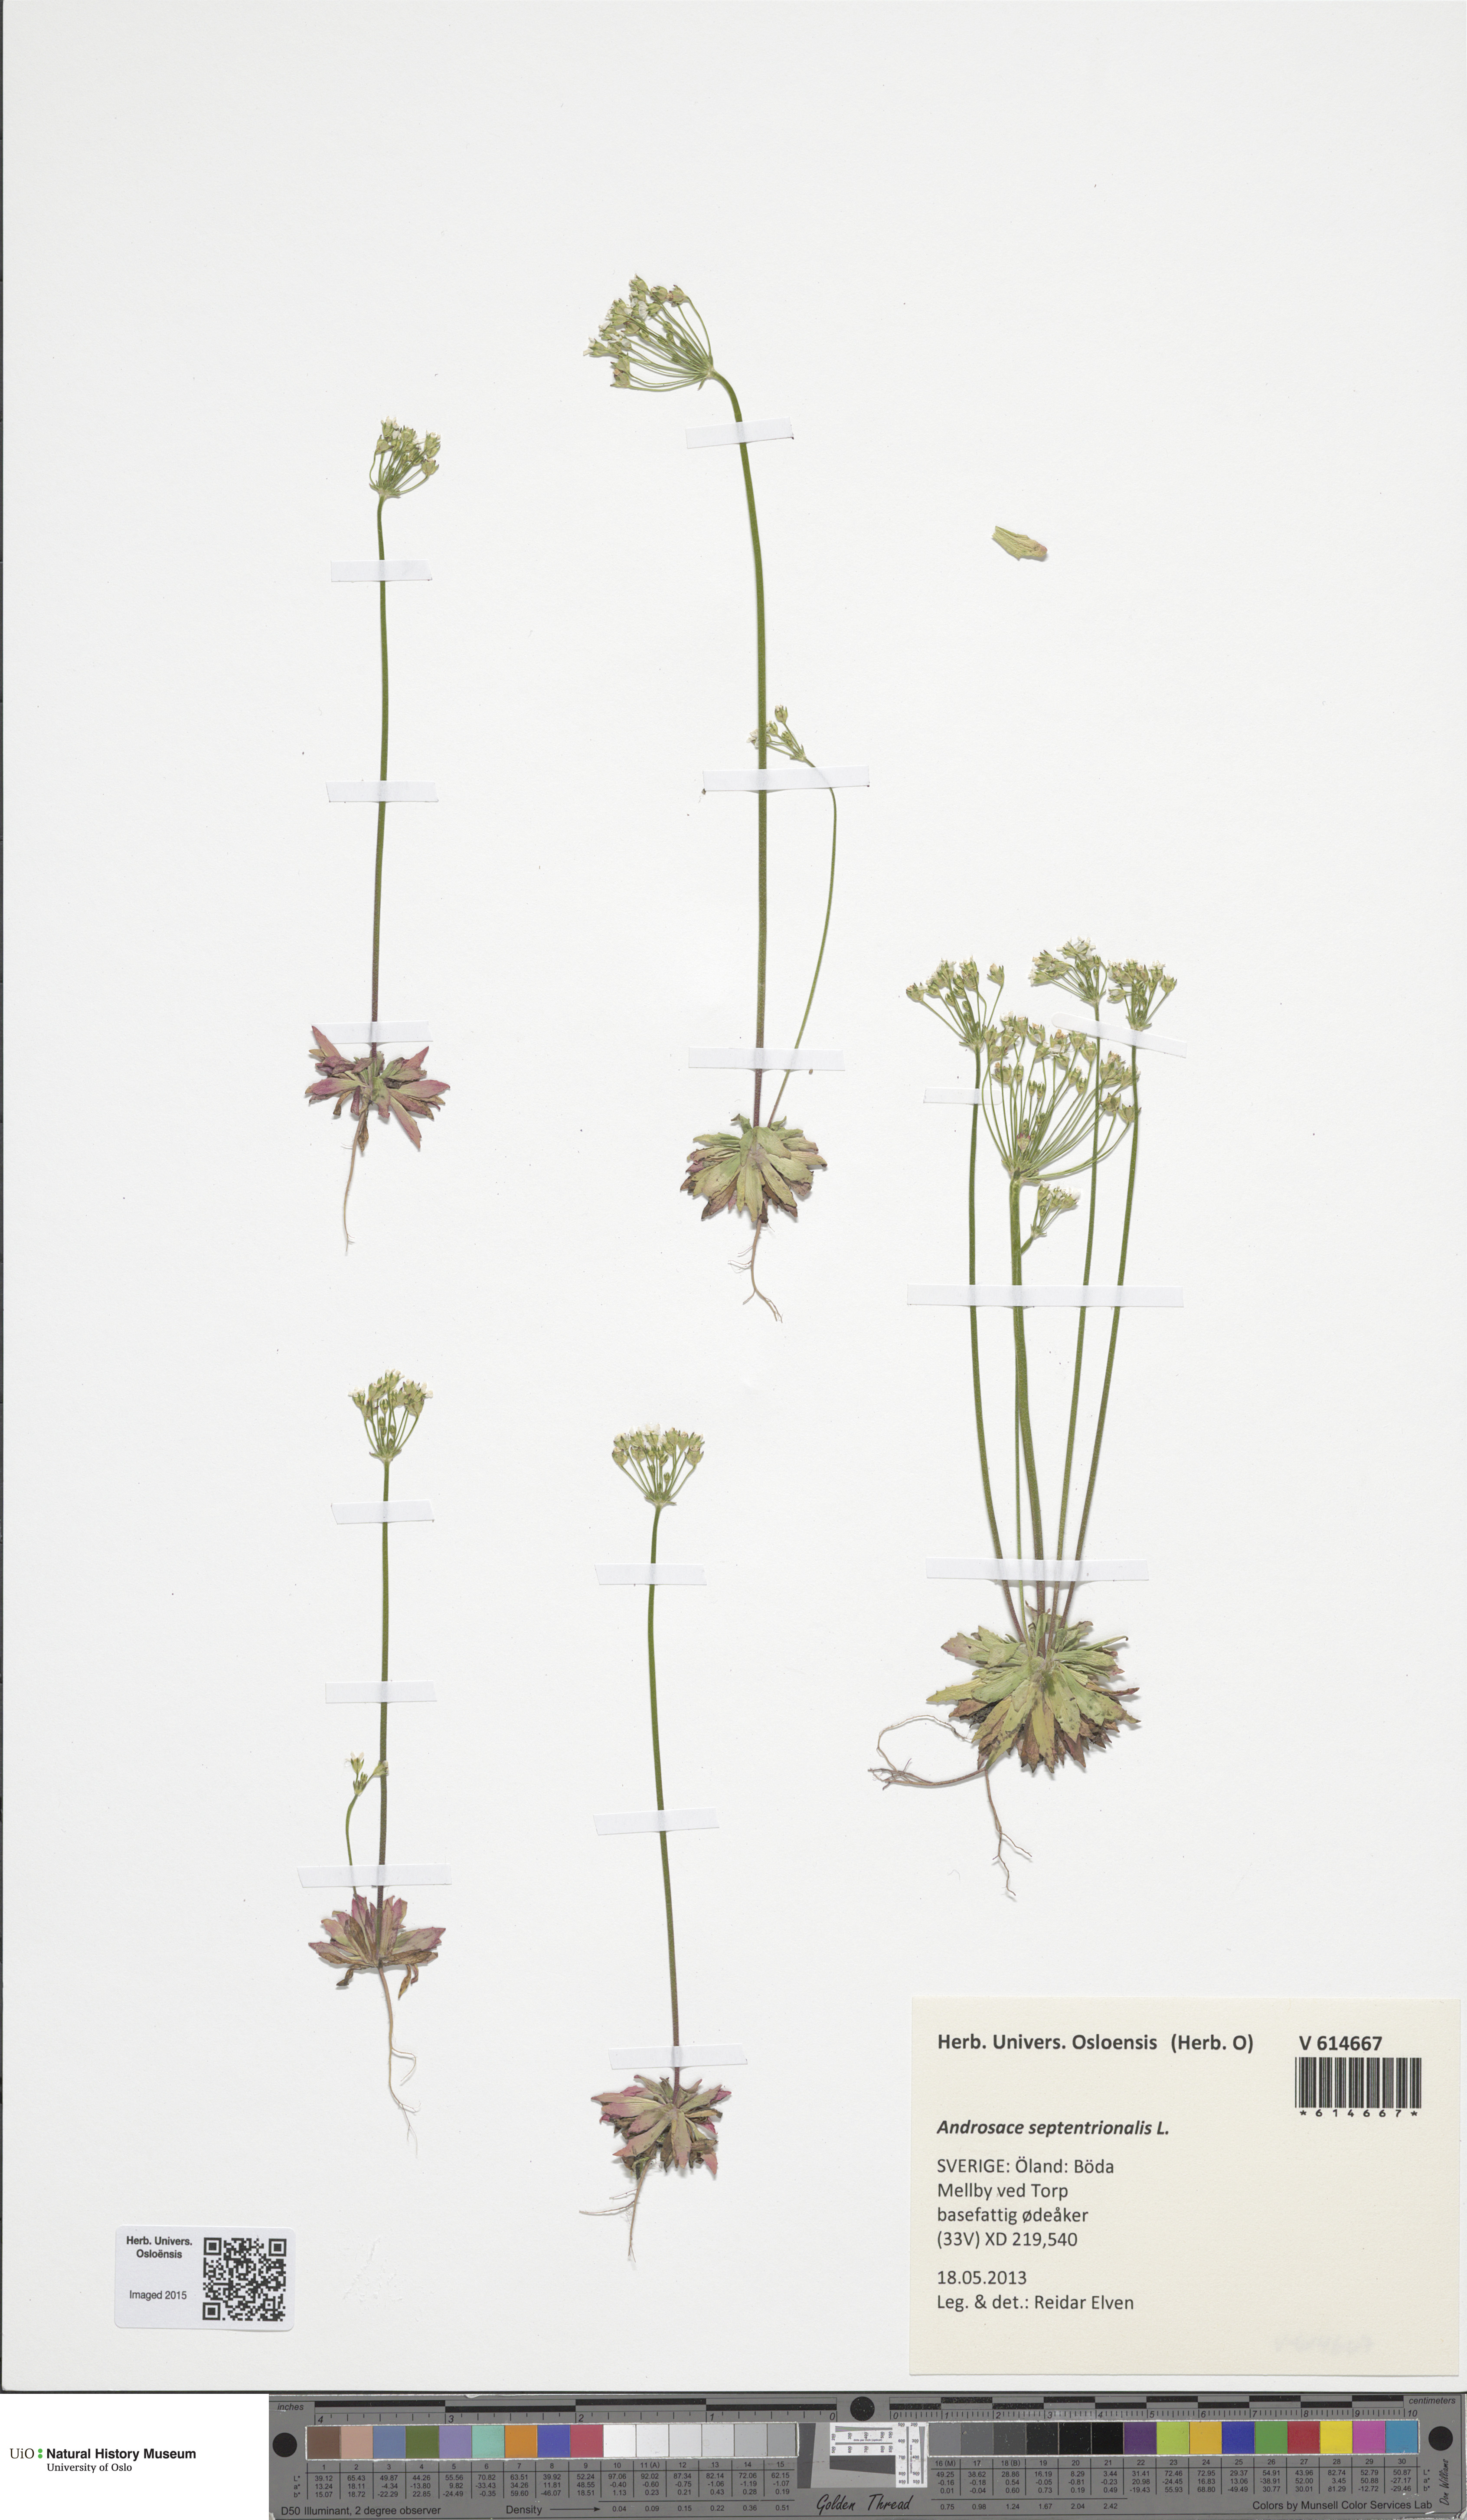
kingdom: Plantae
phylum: Tracheophyta
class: Magnoliopsida
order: Ericales
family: Primulaceae
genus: Androsace
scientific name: Androsace septentrionalis
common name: Hairy northern fairy-candelabra
